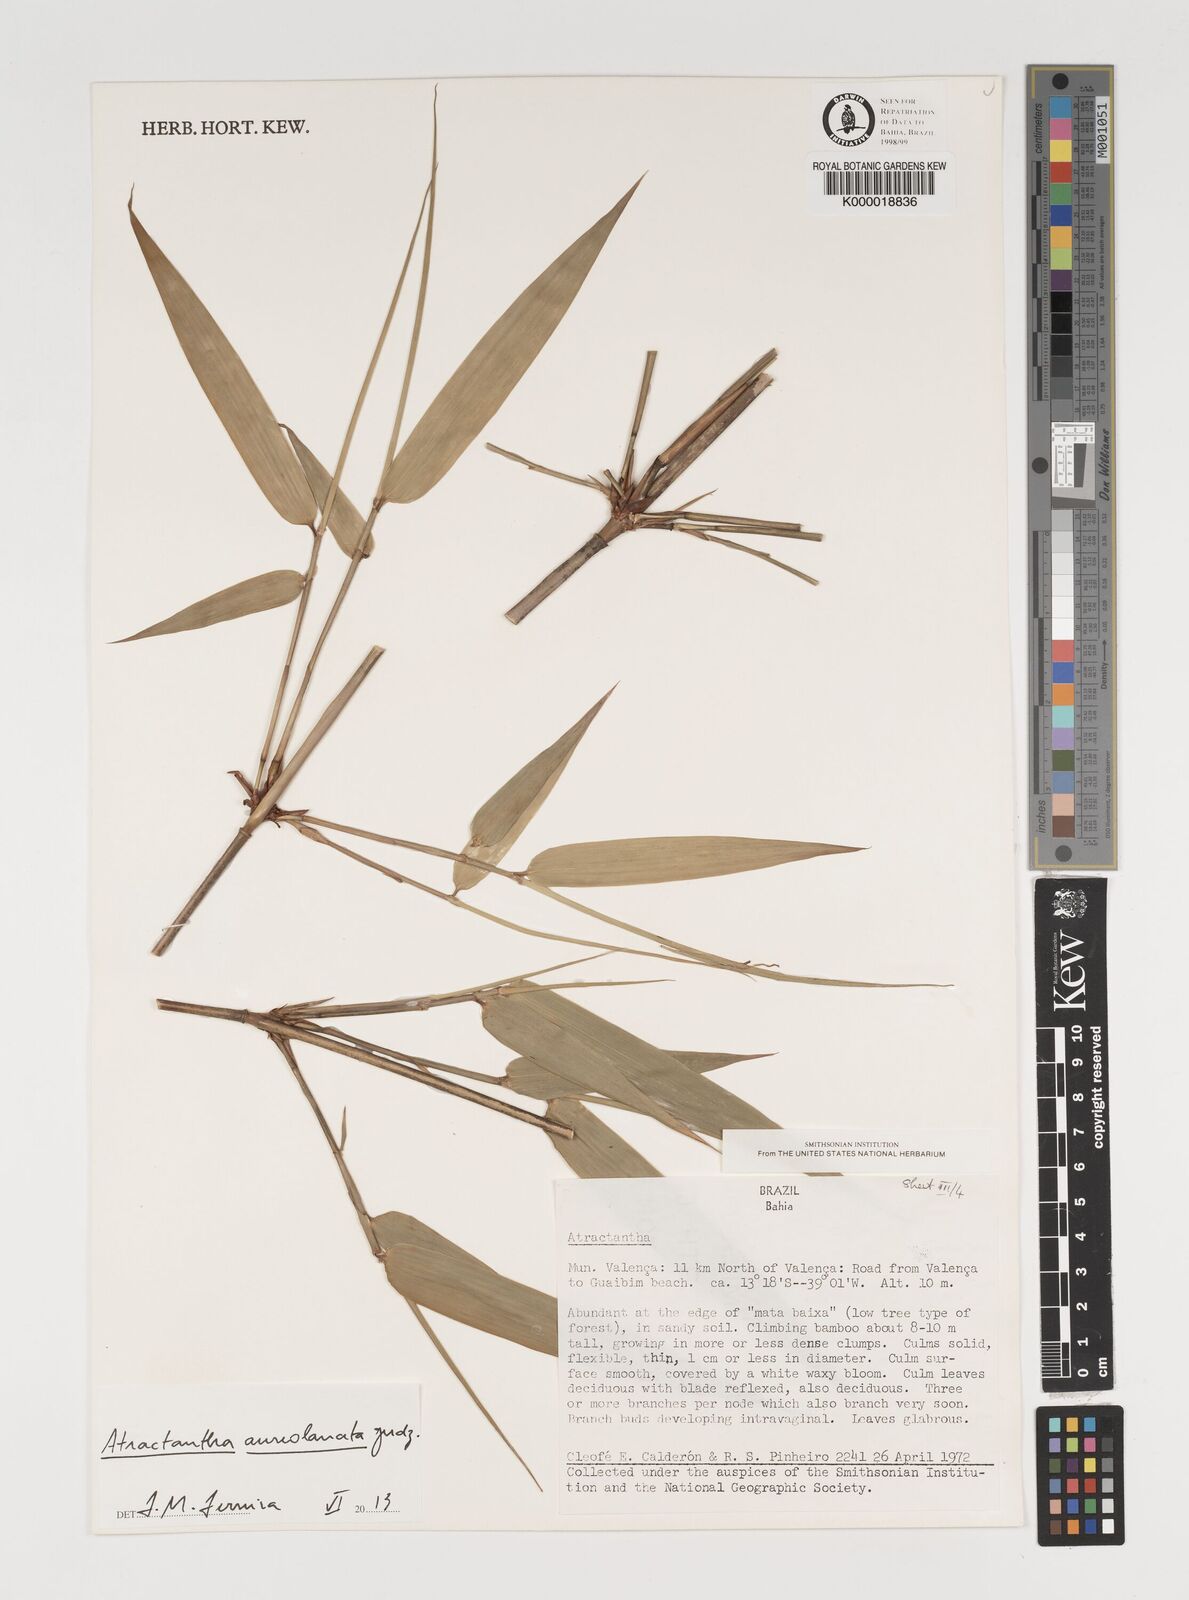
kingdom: Plantae
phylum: Tracheophyta
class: Liliopsida
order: Poales
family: Poaceae
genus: Atractantha
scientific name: Atractantha
